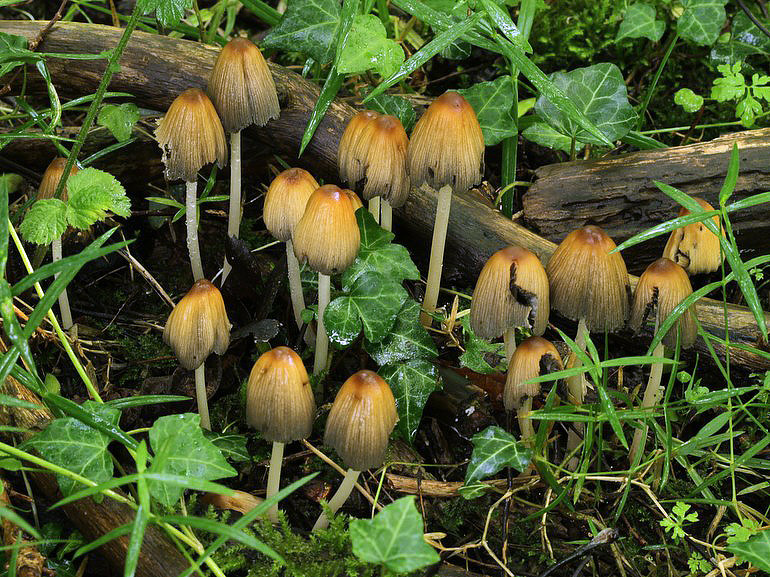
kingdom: Fungi
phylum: Basidiomycota
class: Agaricomycetes
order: Agaricales
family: Psathyrellaceae
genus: Coprinellus
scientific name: Coprinellus micaceus
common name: glimmer-blækhat
